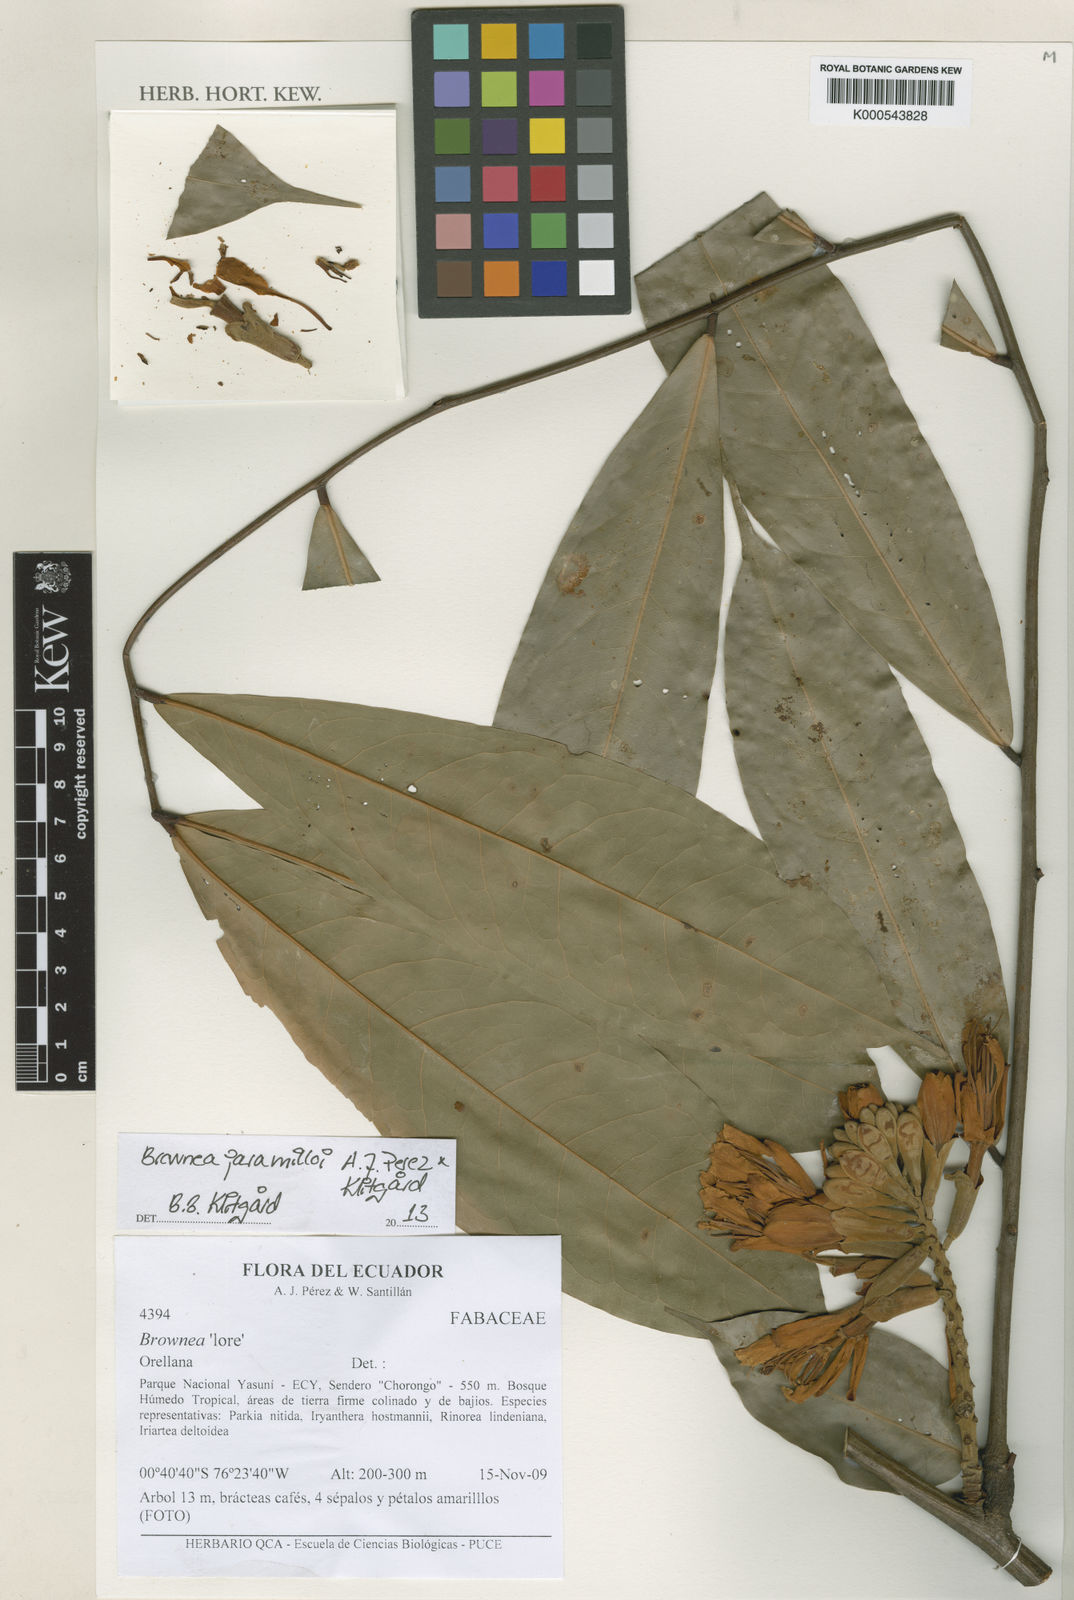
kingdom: Plantae
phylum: Tracheophyta
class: Magnoliopsida
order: Fabales
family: Fabaceae
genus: Brownea
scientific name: Brownea
